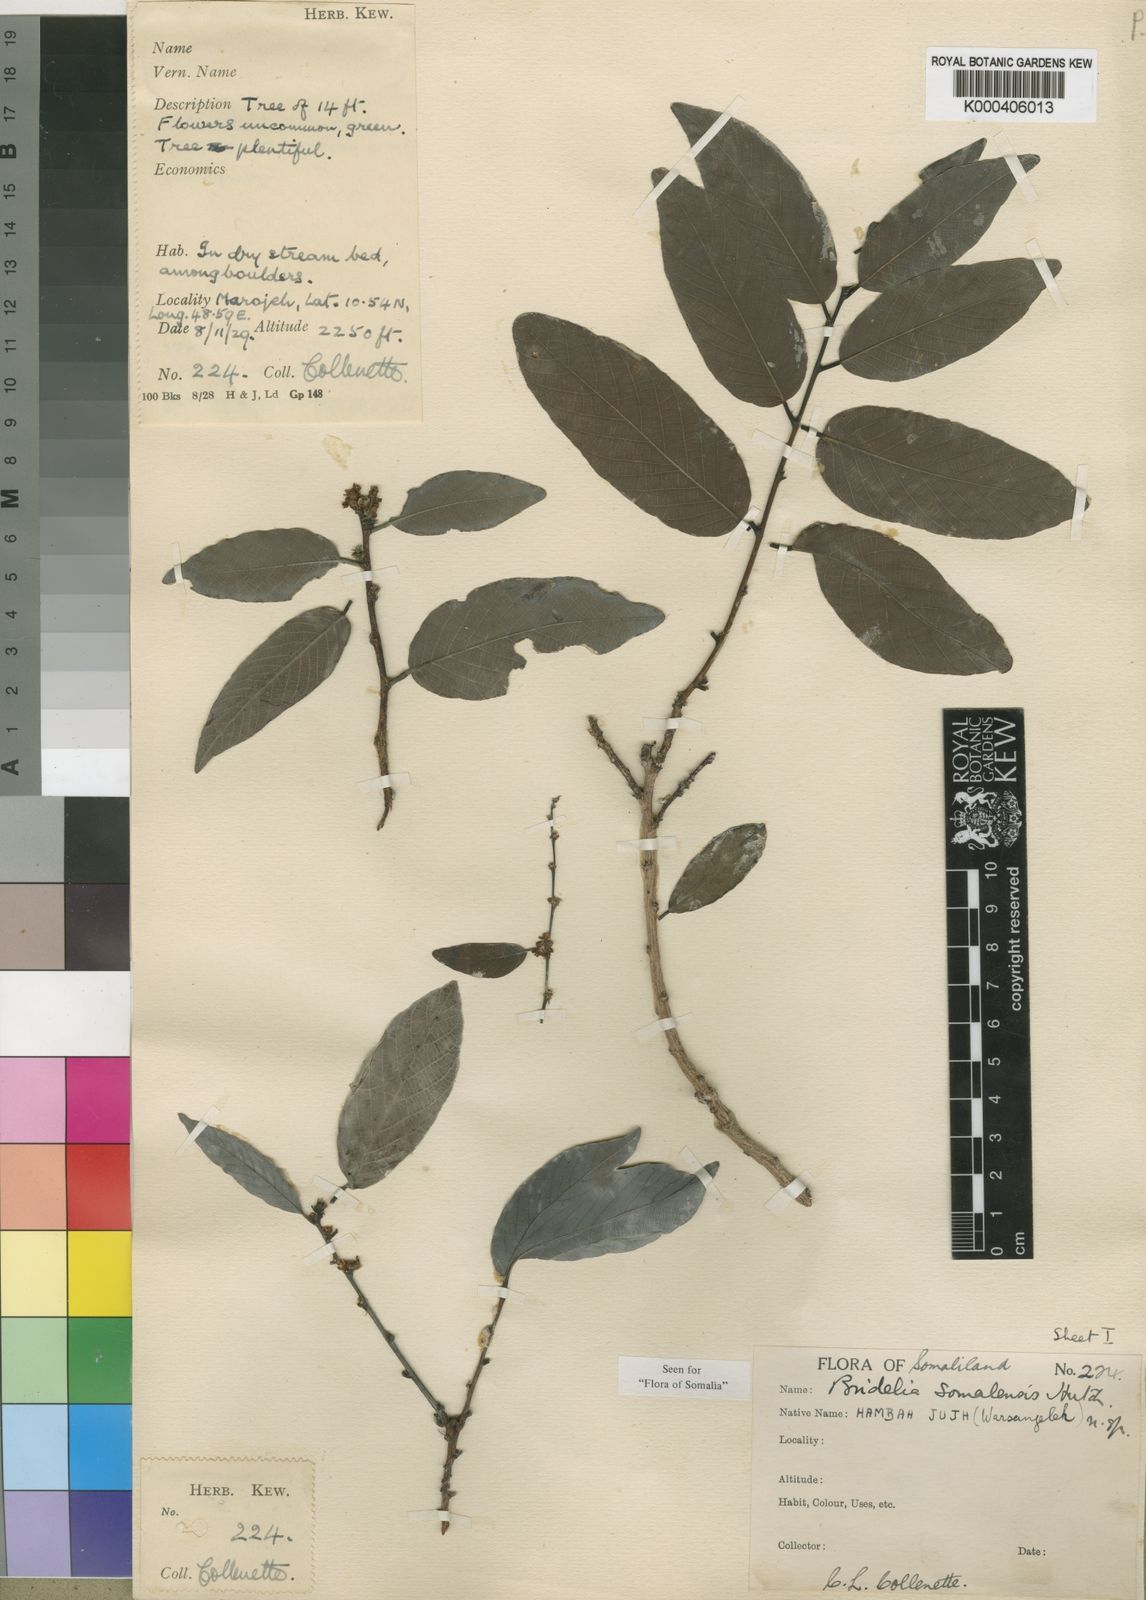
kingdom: Plantae
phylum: Tracheophyta
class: Magnoliopsida
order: Malpighiales
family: Phyllanthaceae
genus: Bridelia
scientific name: Bridelia somalensis
